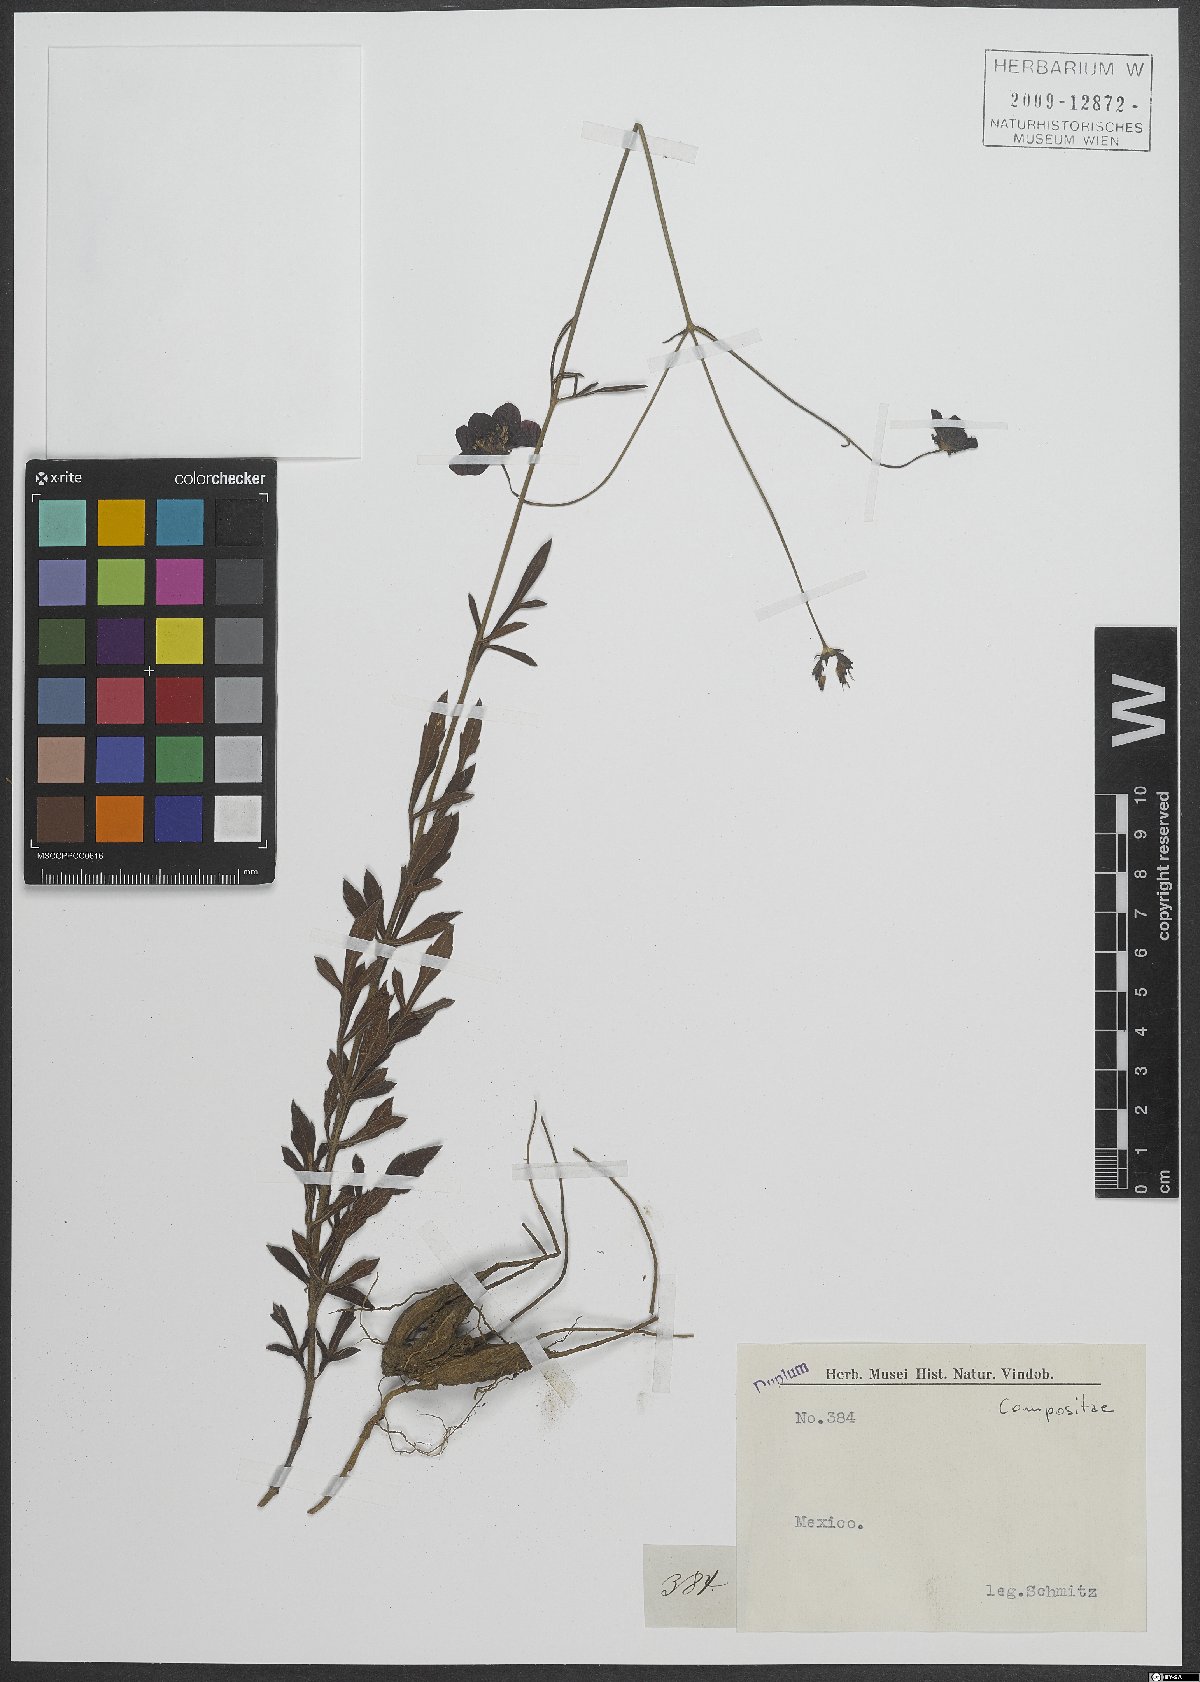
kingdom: Plantae
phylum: Tracheophyta
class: Magnoliopsida
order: Asterales
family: Asteraceae
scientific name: Asteraceae
